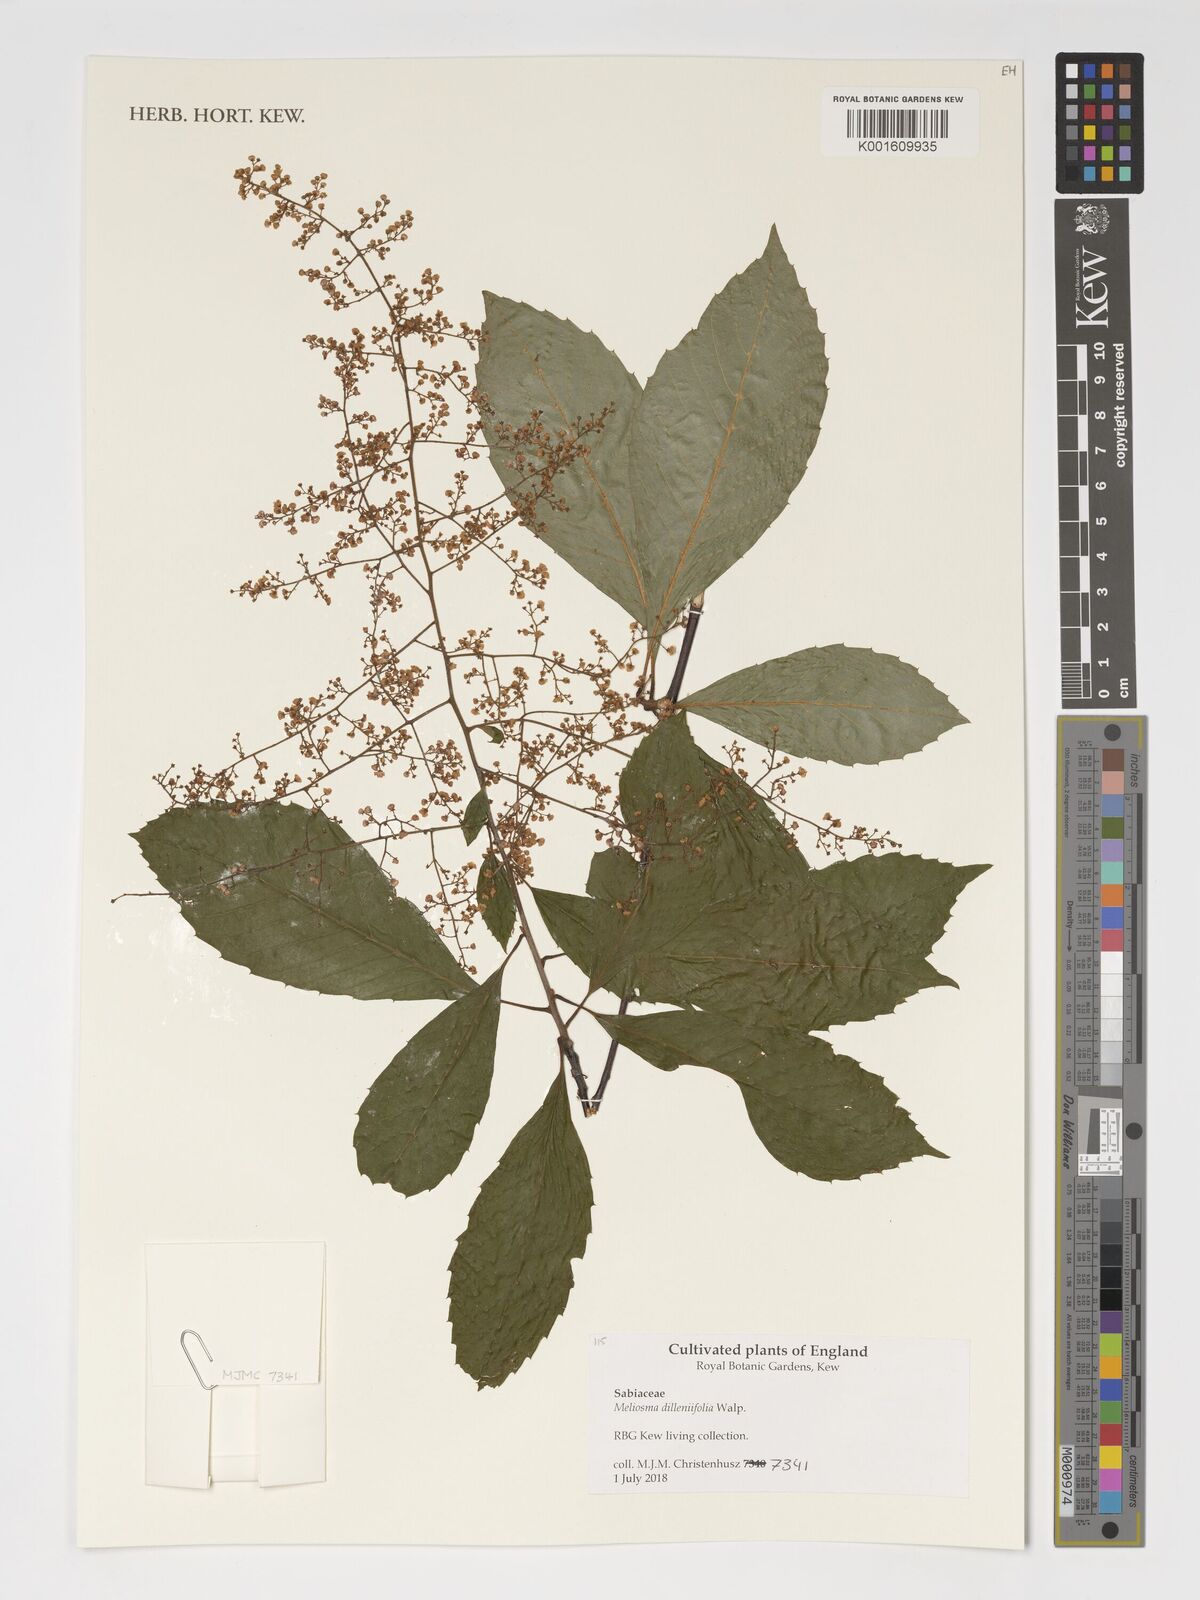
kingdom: Plantae
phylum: Tracheophyta
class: Magnoliopsida
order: Proteales
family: Sabiaceae
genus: Meliosma
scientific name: Meliosma dilleniifolia
